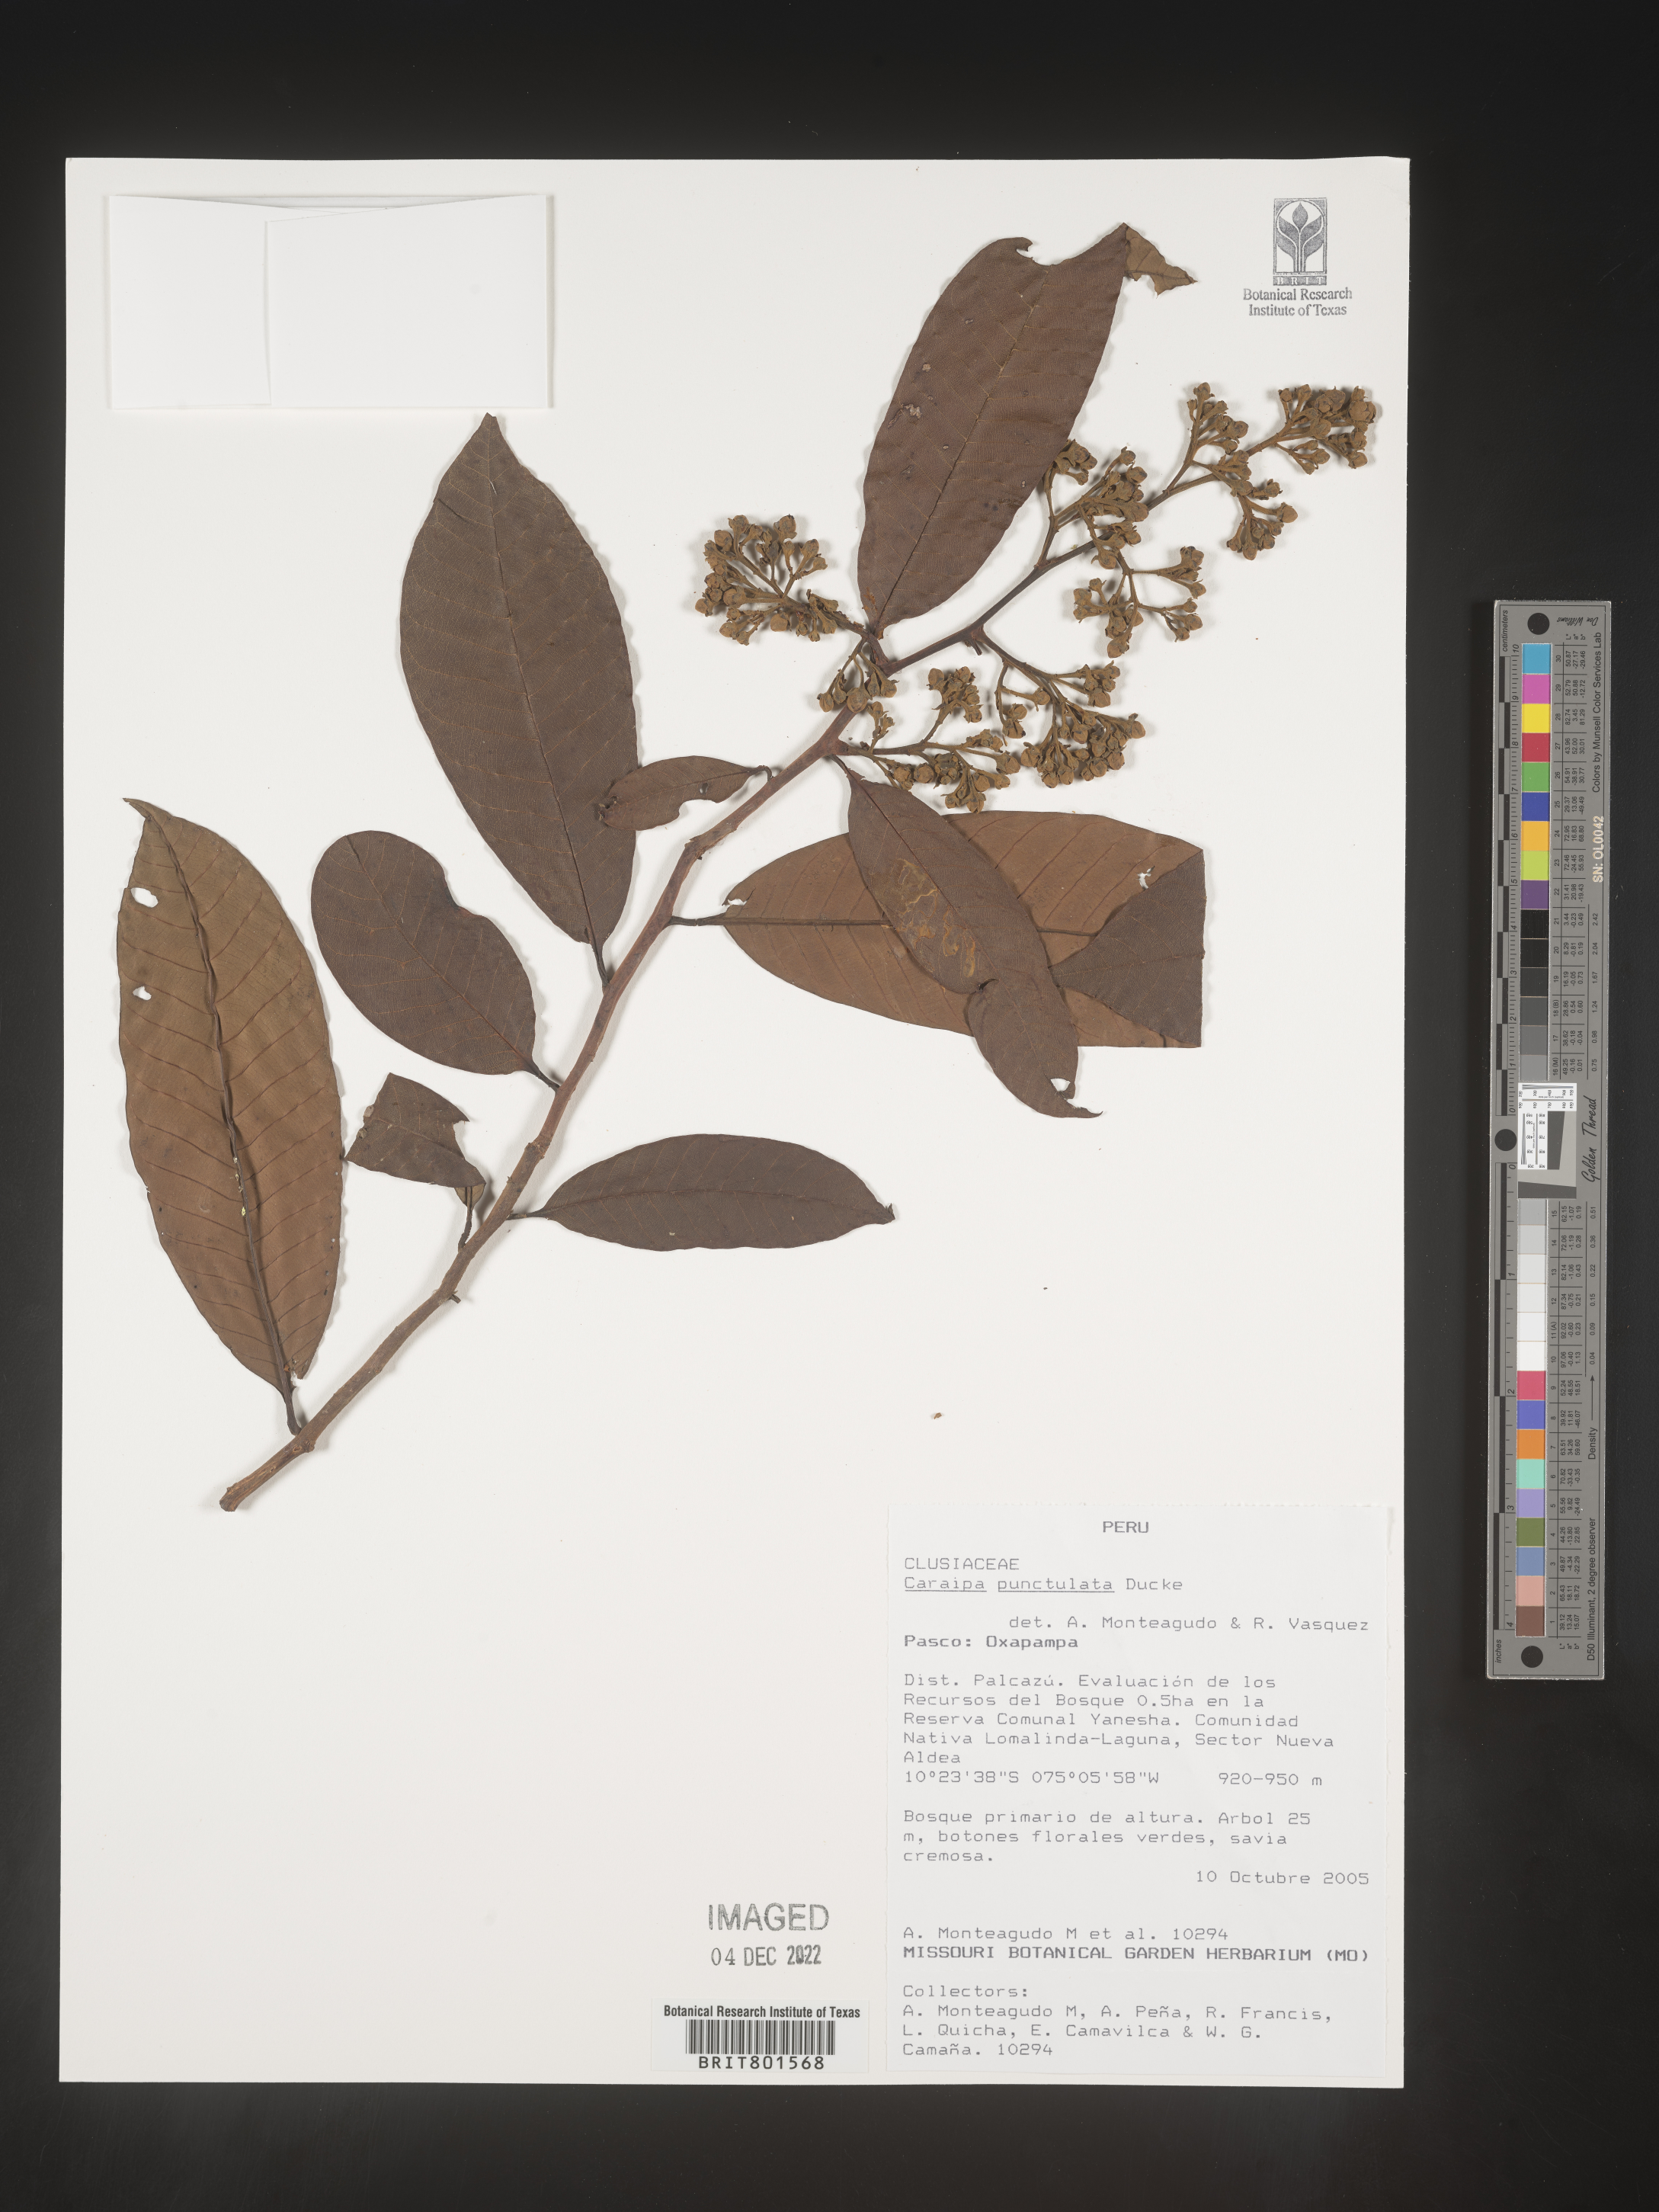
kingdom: Plantae
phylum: Tracheophyta
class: Magnoliopsida
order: Malpighiales
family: Calophyllaceae
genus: Caraipa
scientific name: Caraipa
